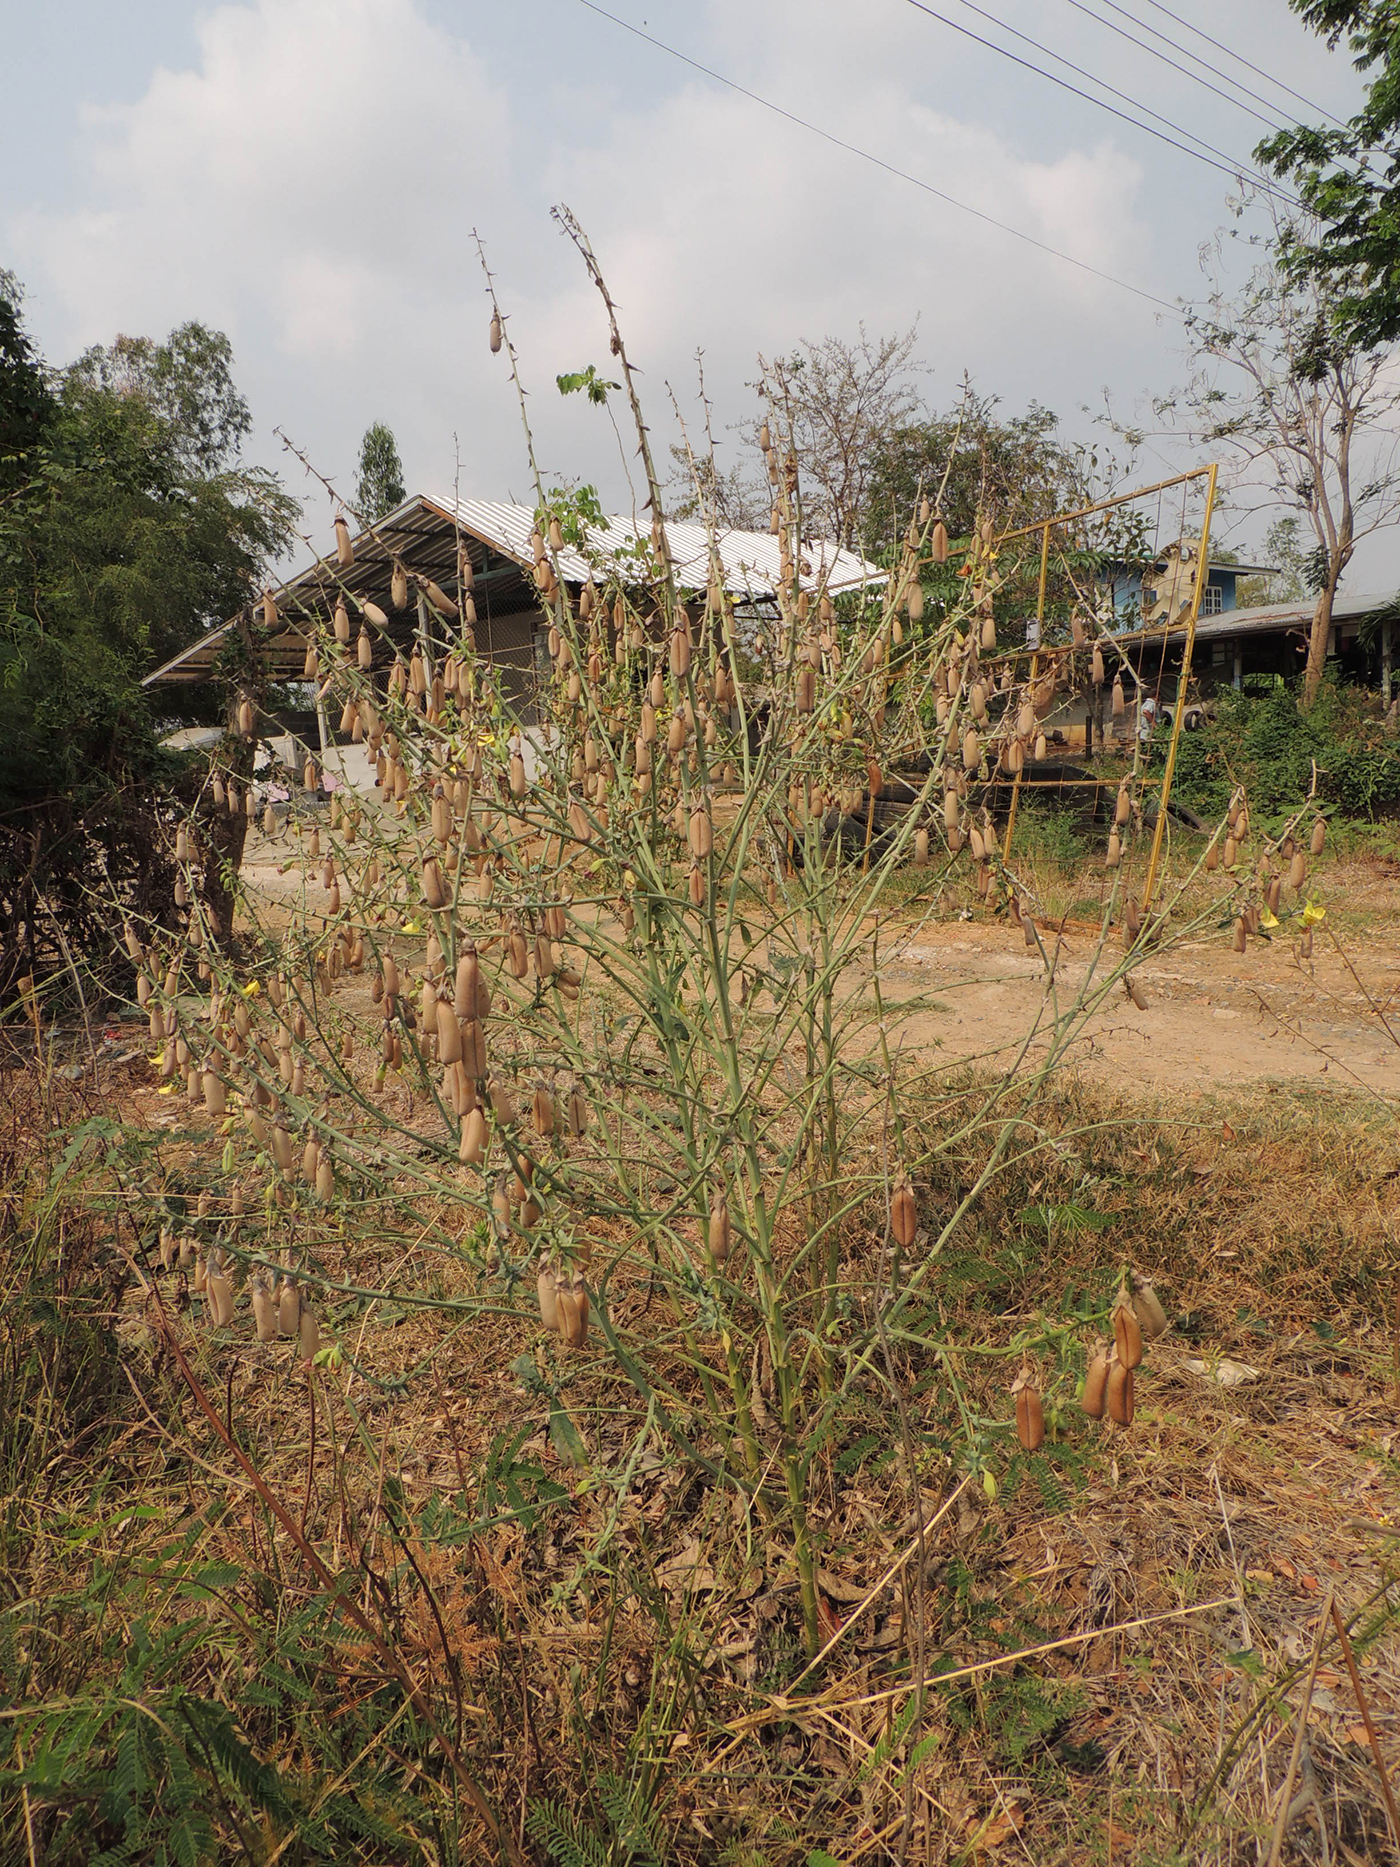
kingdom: Plantae
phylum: Tracheophyta
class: Magnoliopsida
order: Fabales
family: Fabaceae
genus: Crotalaria
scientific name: Crotalaria spectabilis
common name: Showy rattlebox
